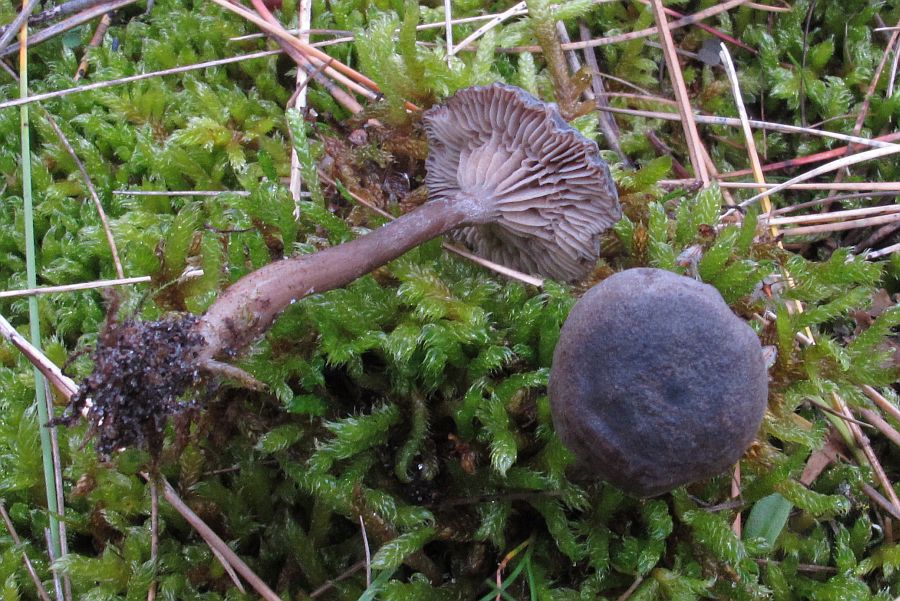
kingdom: Fungi
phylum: Basidiomycota
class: Agaricomycetes
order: Agaricales
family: Entolomataceae
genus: Clitopilus
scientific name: Clitopilus caelatus
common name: gråbrun troldhat
